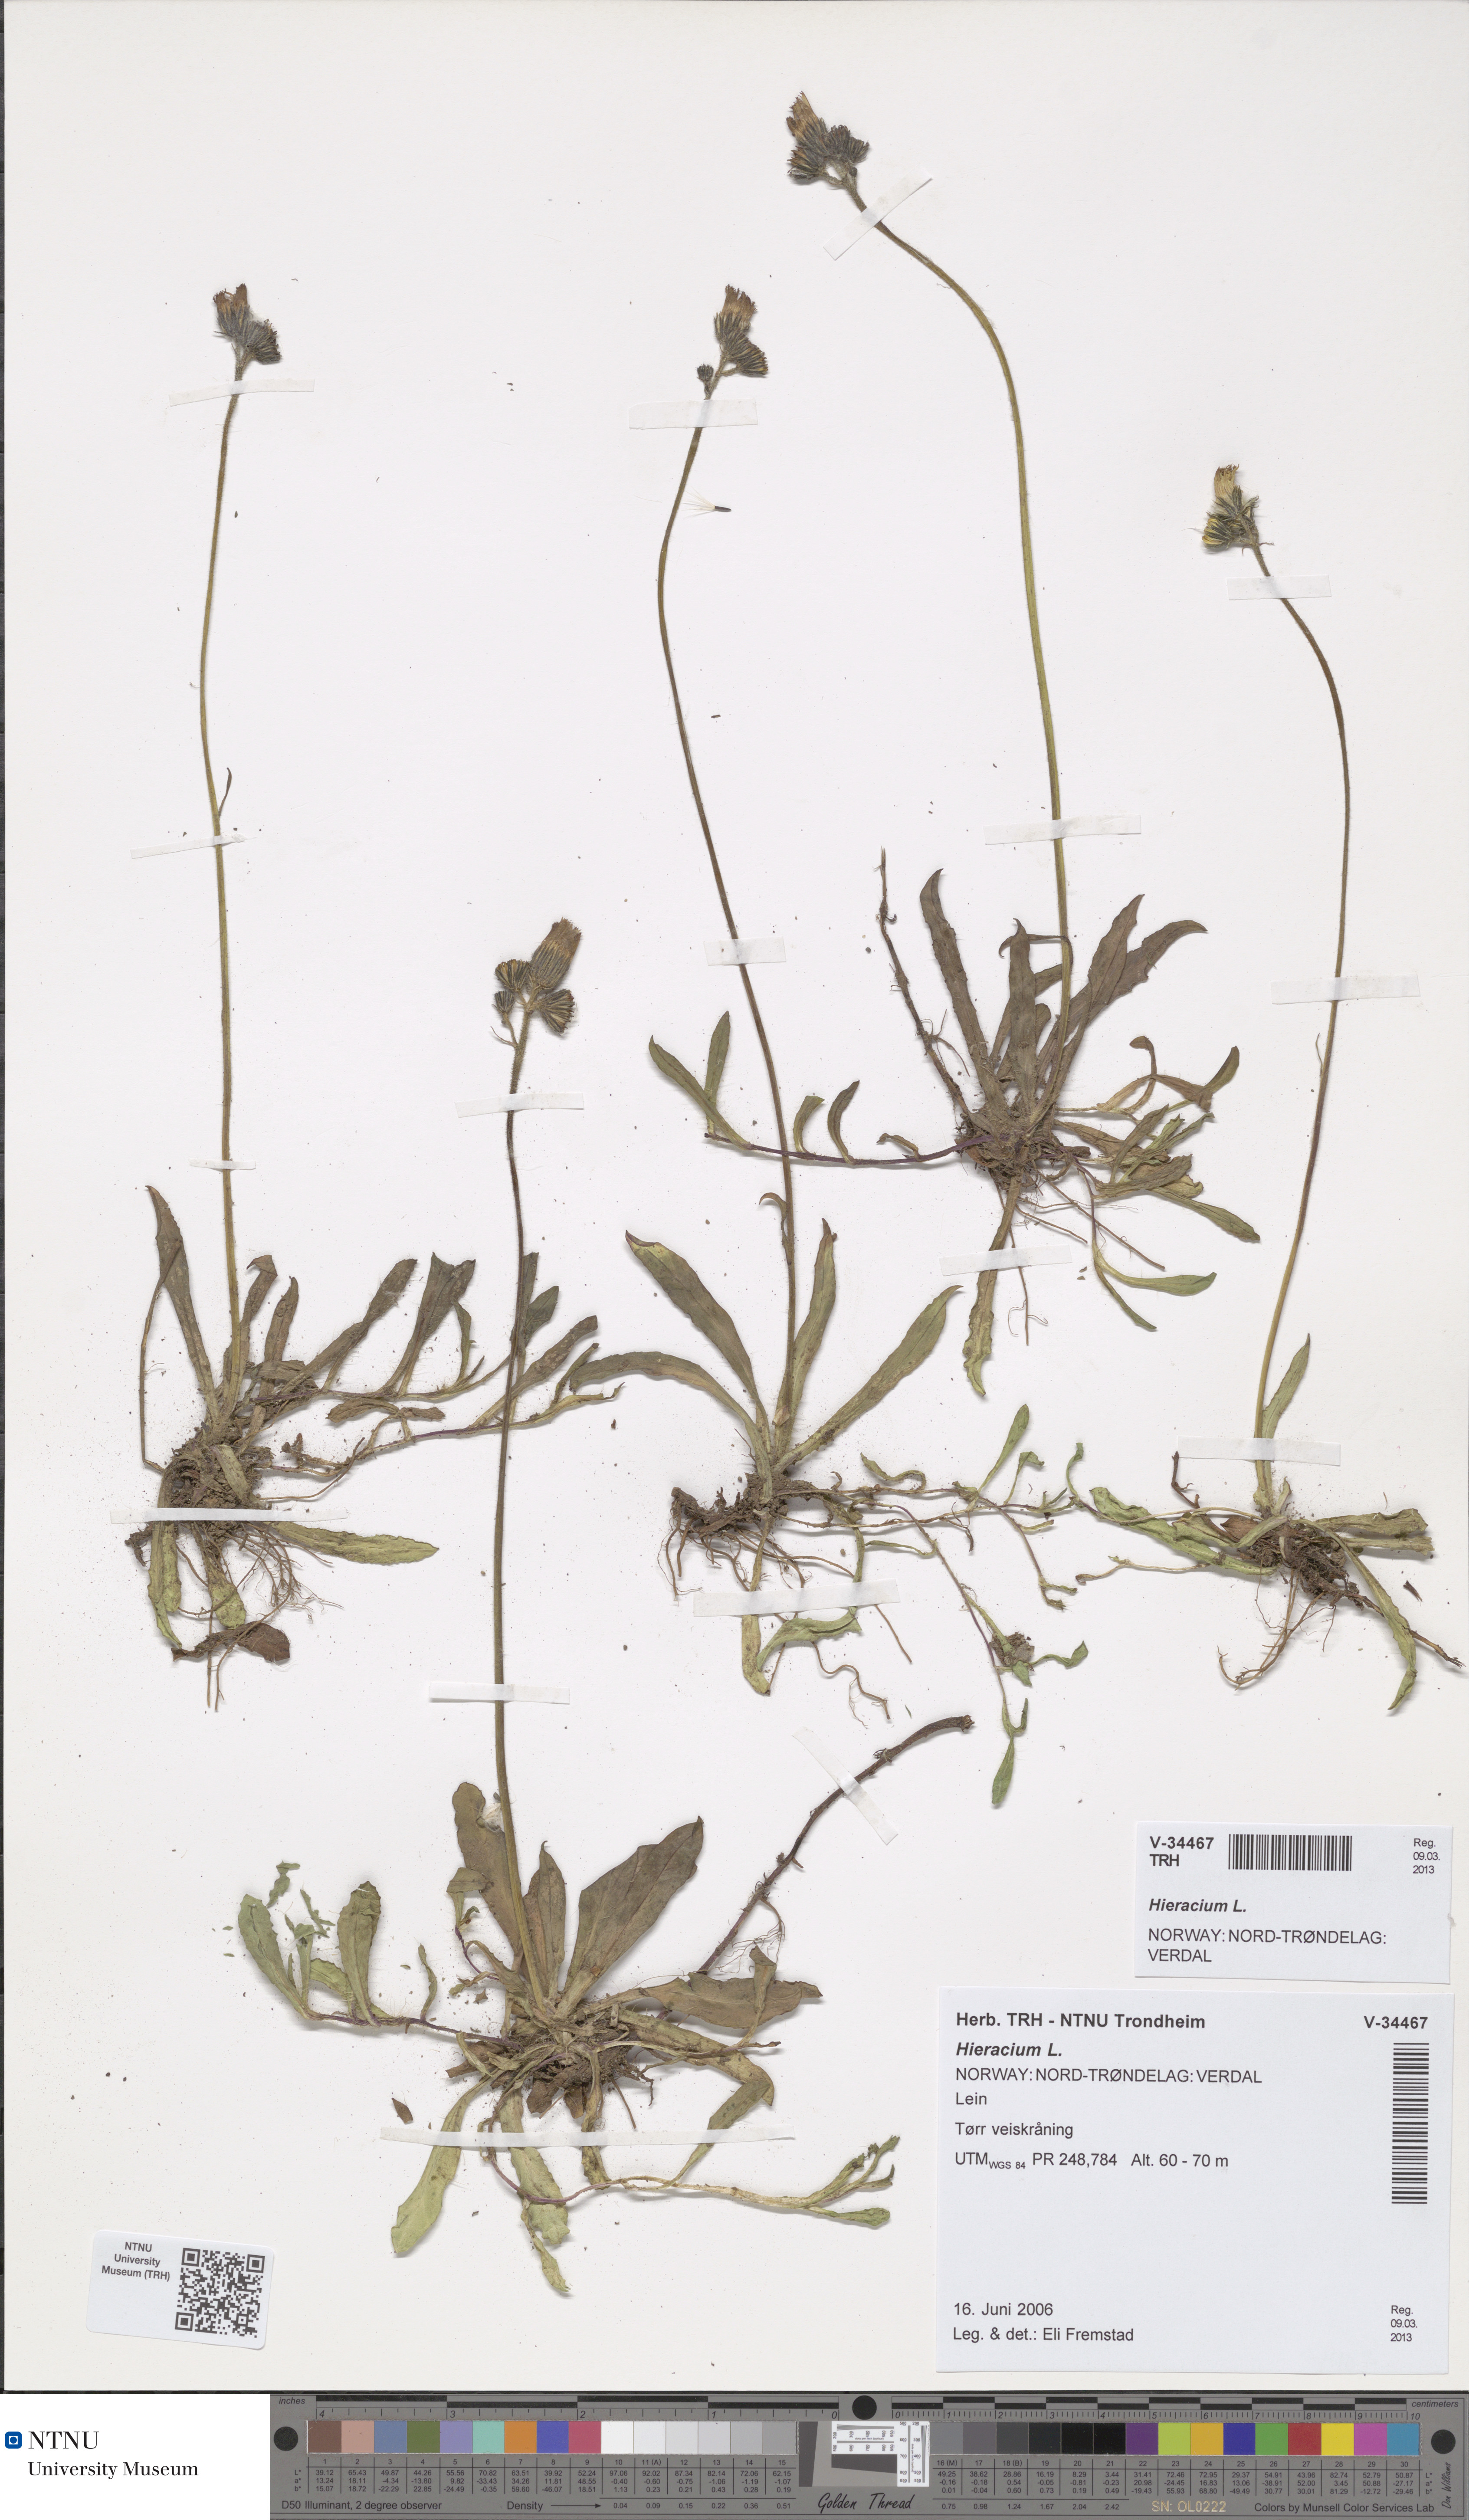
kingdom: Plantae
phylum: Tracheophyta
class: Magnoliopsida
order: Asterales
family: Asteraceae
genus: Hieracium
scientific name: Hieracium
